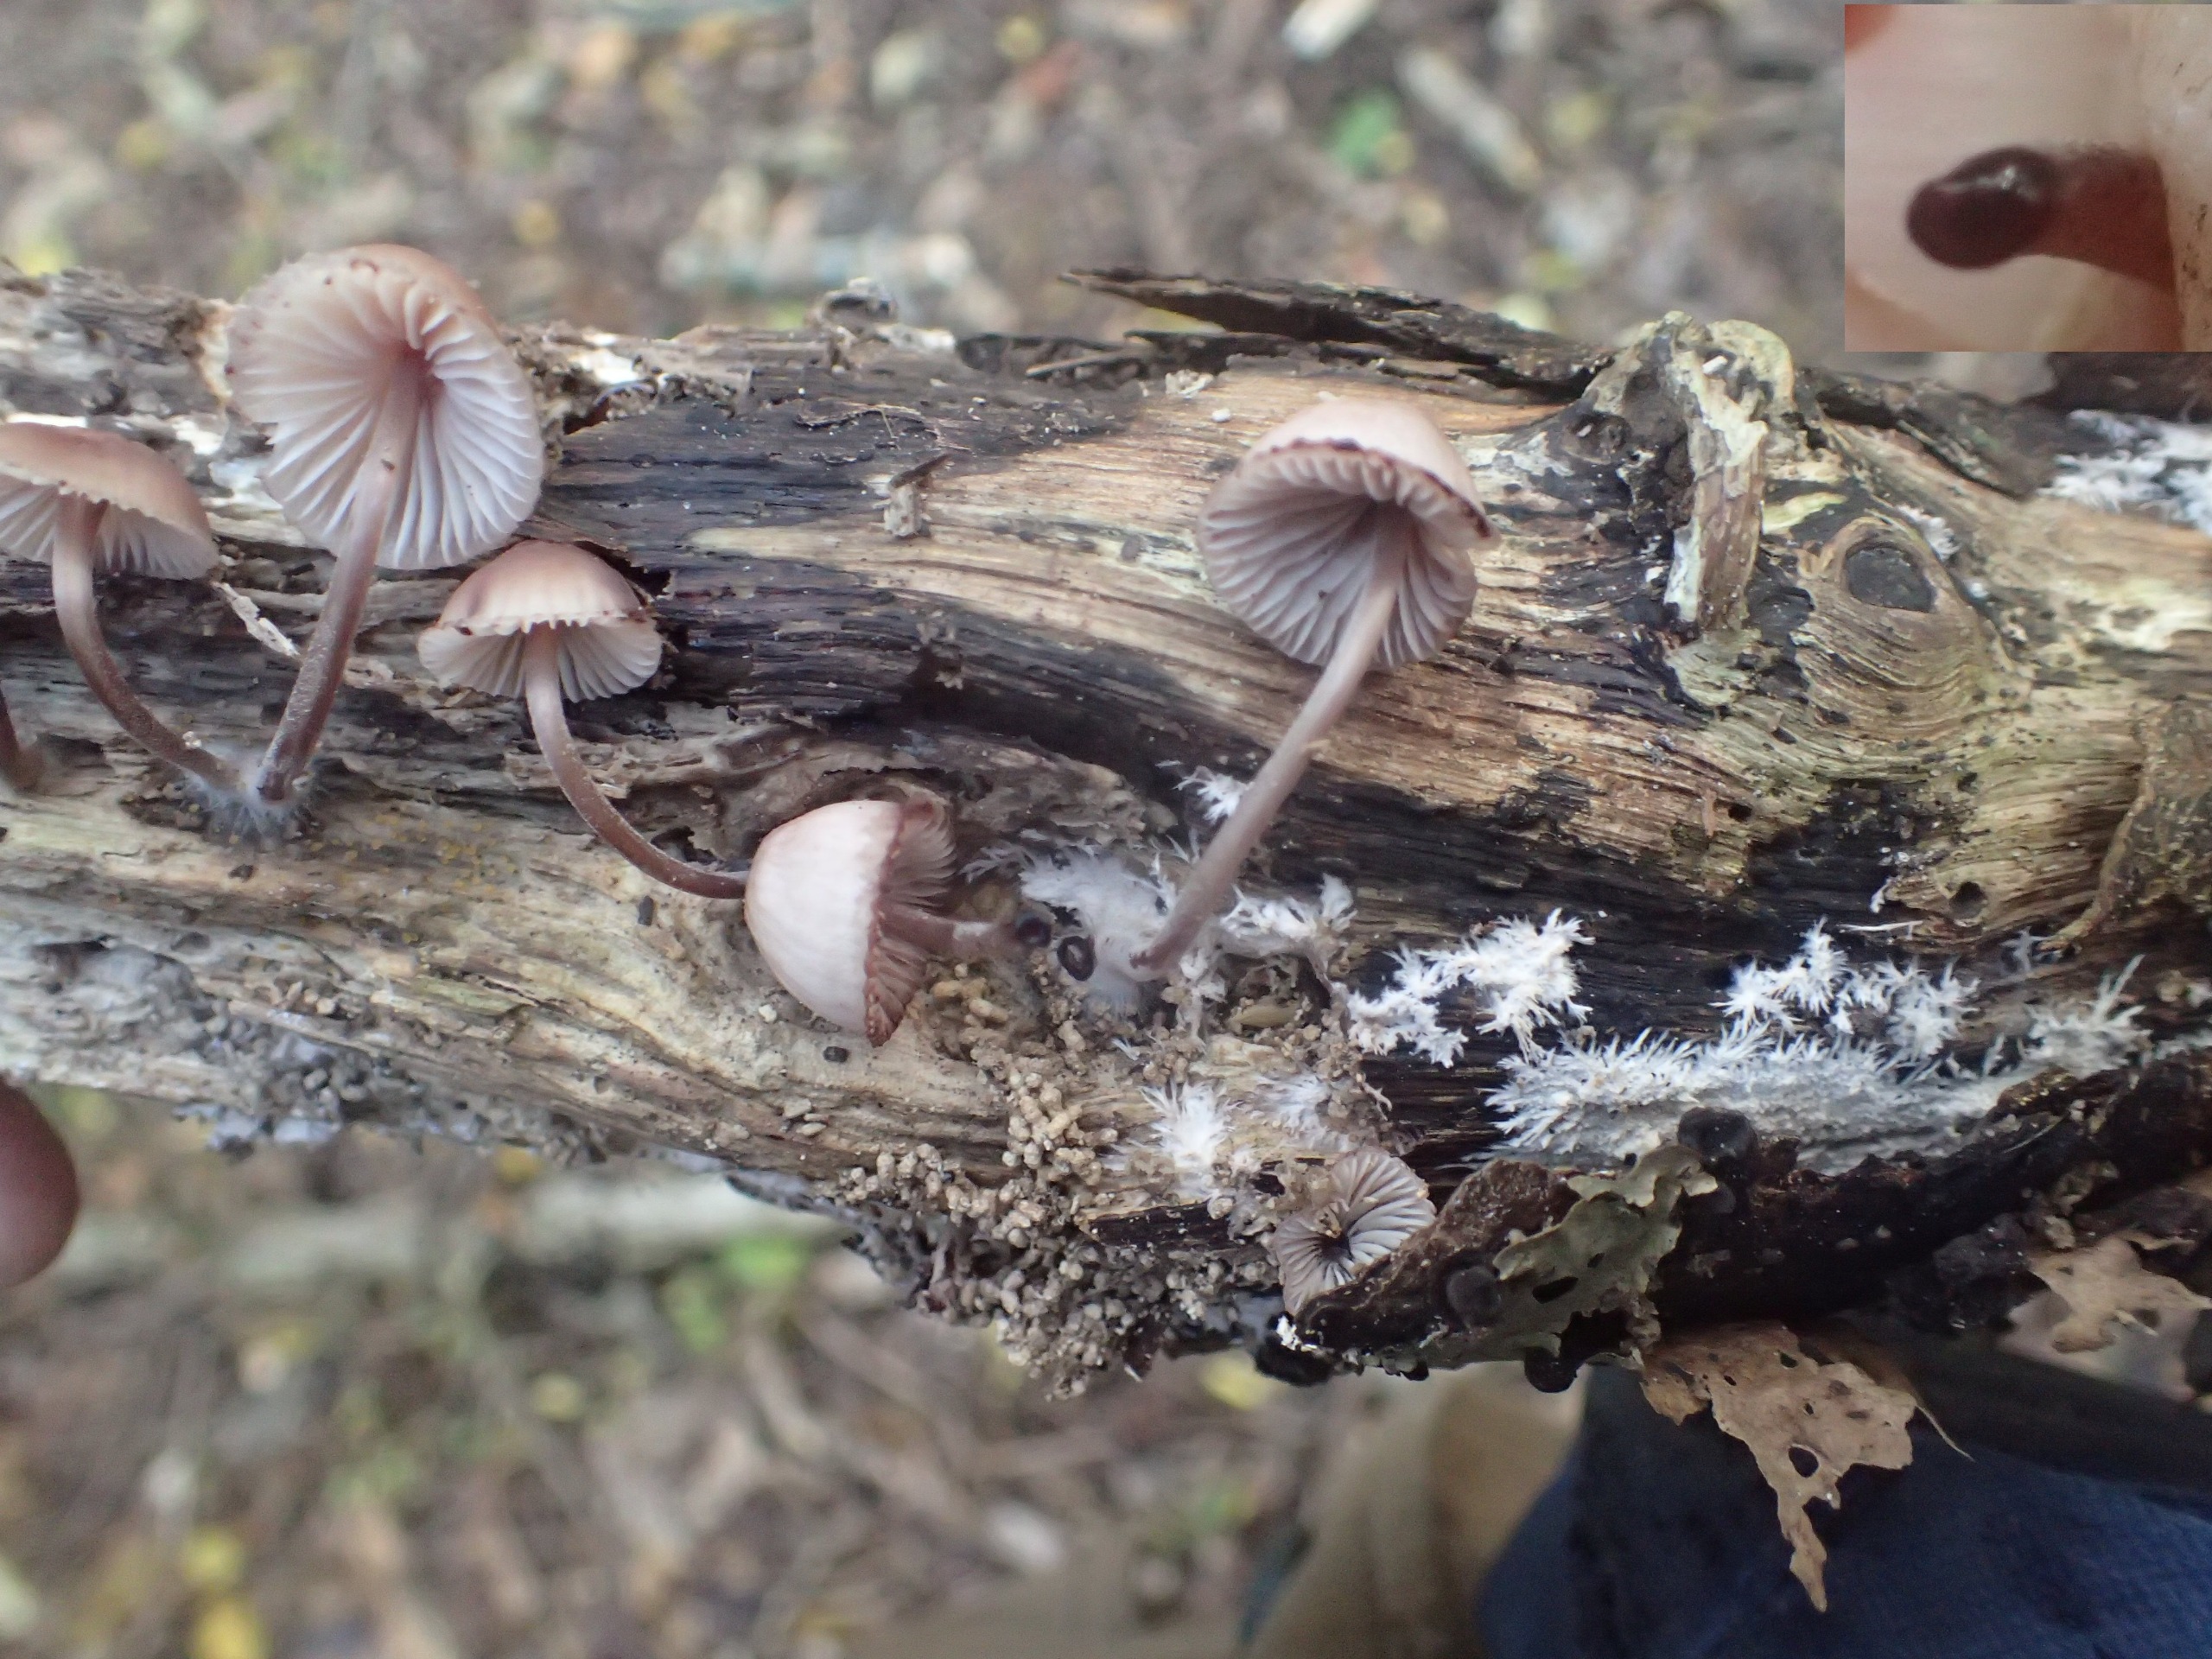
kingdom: Fungi
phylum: Basidiomycota
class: Agaricomycetes
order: Agaricales
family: Mycenaceae
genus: Mycena
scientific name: Mycena haematopus
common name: Blødende huesvamp
